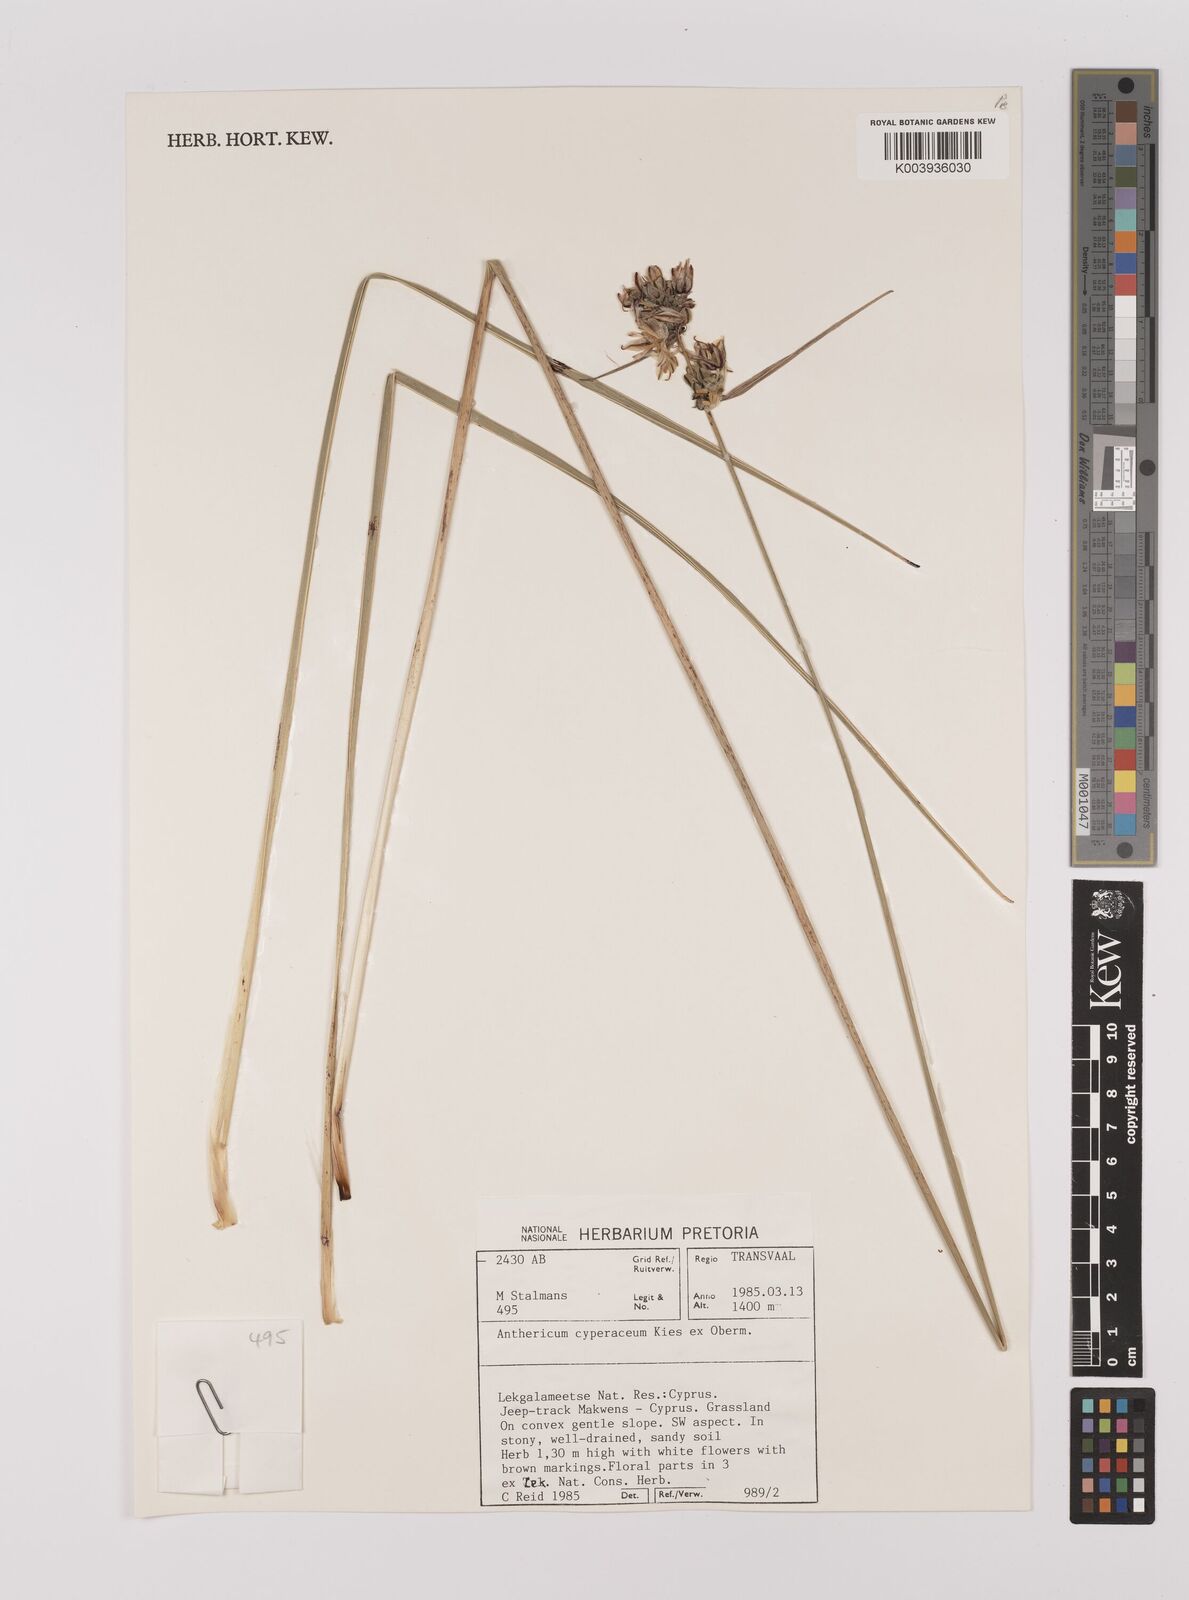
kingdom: Plantae
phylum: Tracheophyta
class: Liliopsida
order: Asparagales
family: Asparagaceae
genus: Chlorophytum
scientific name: Chlorophytum cyperaceum
